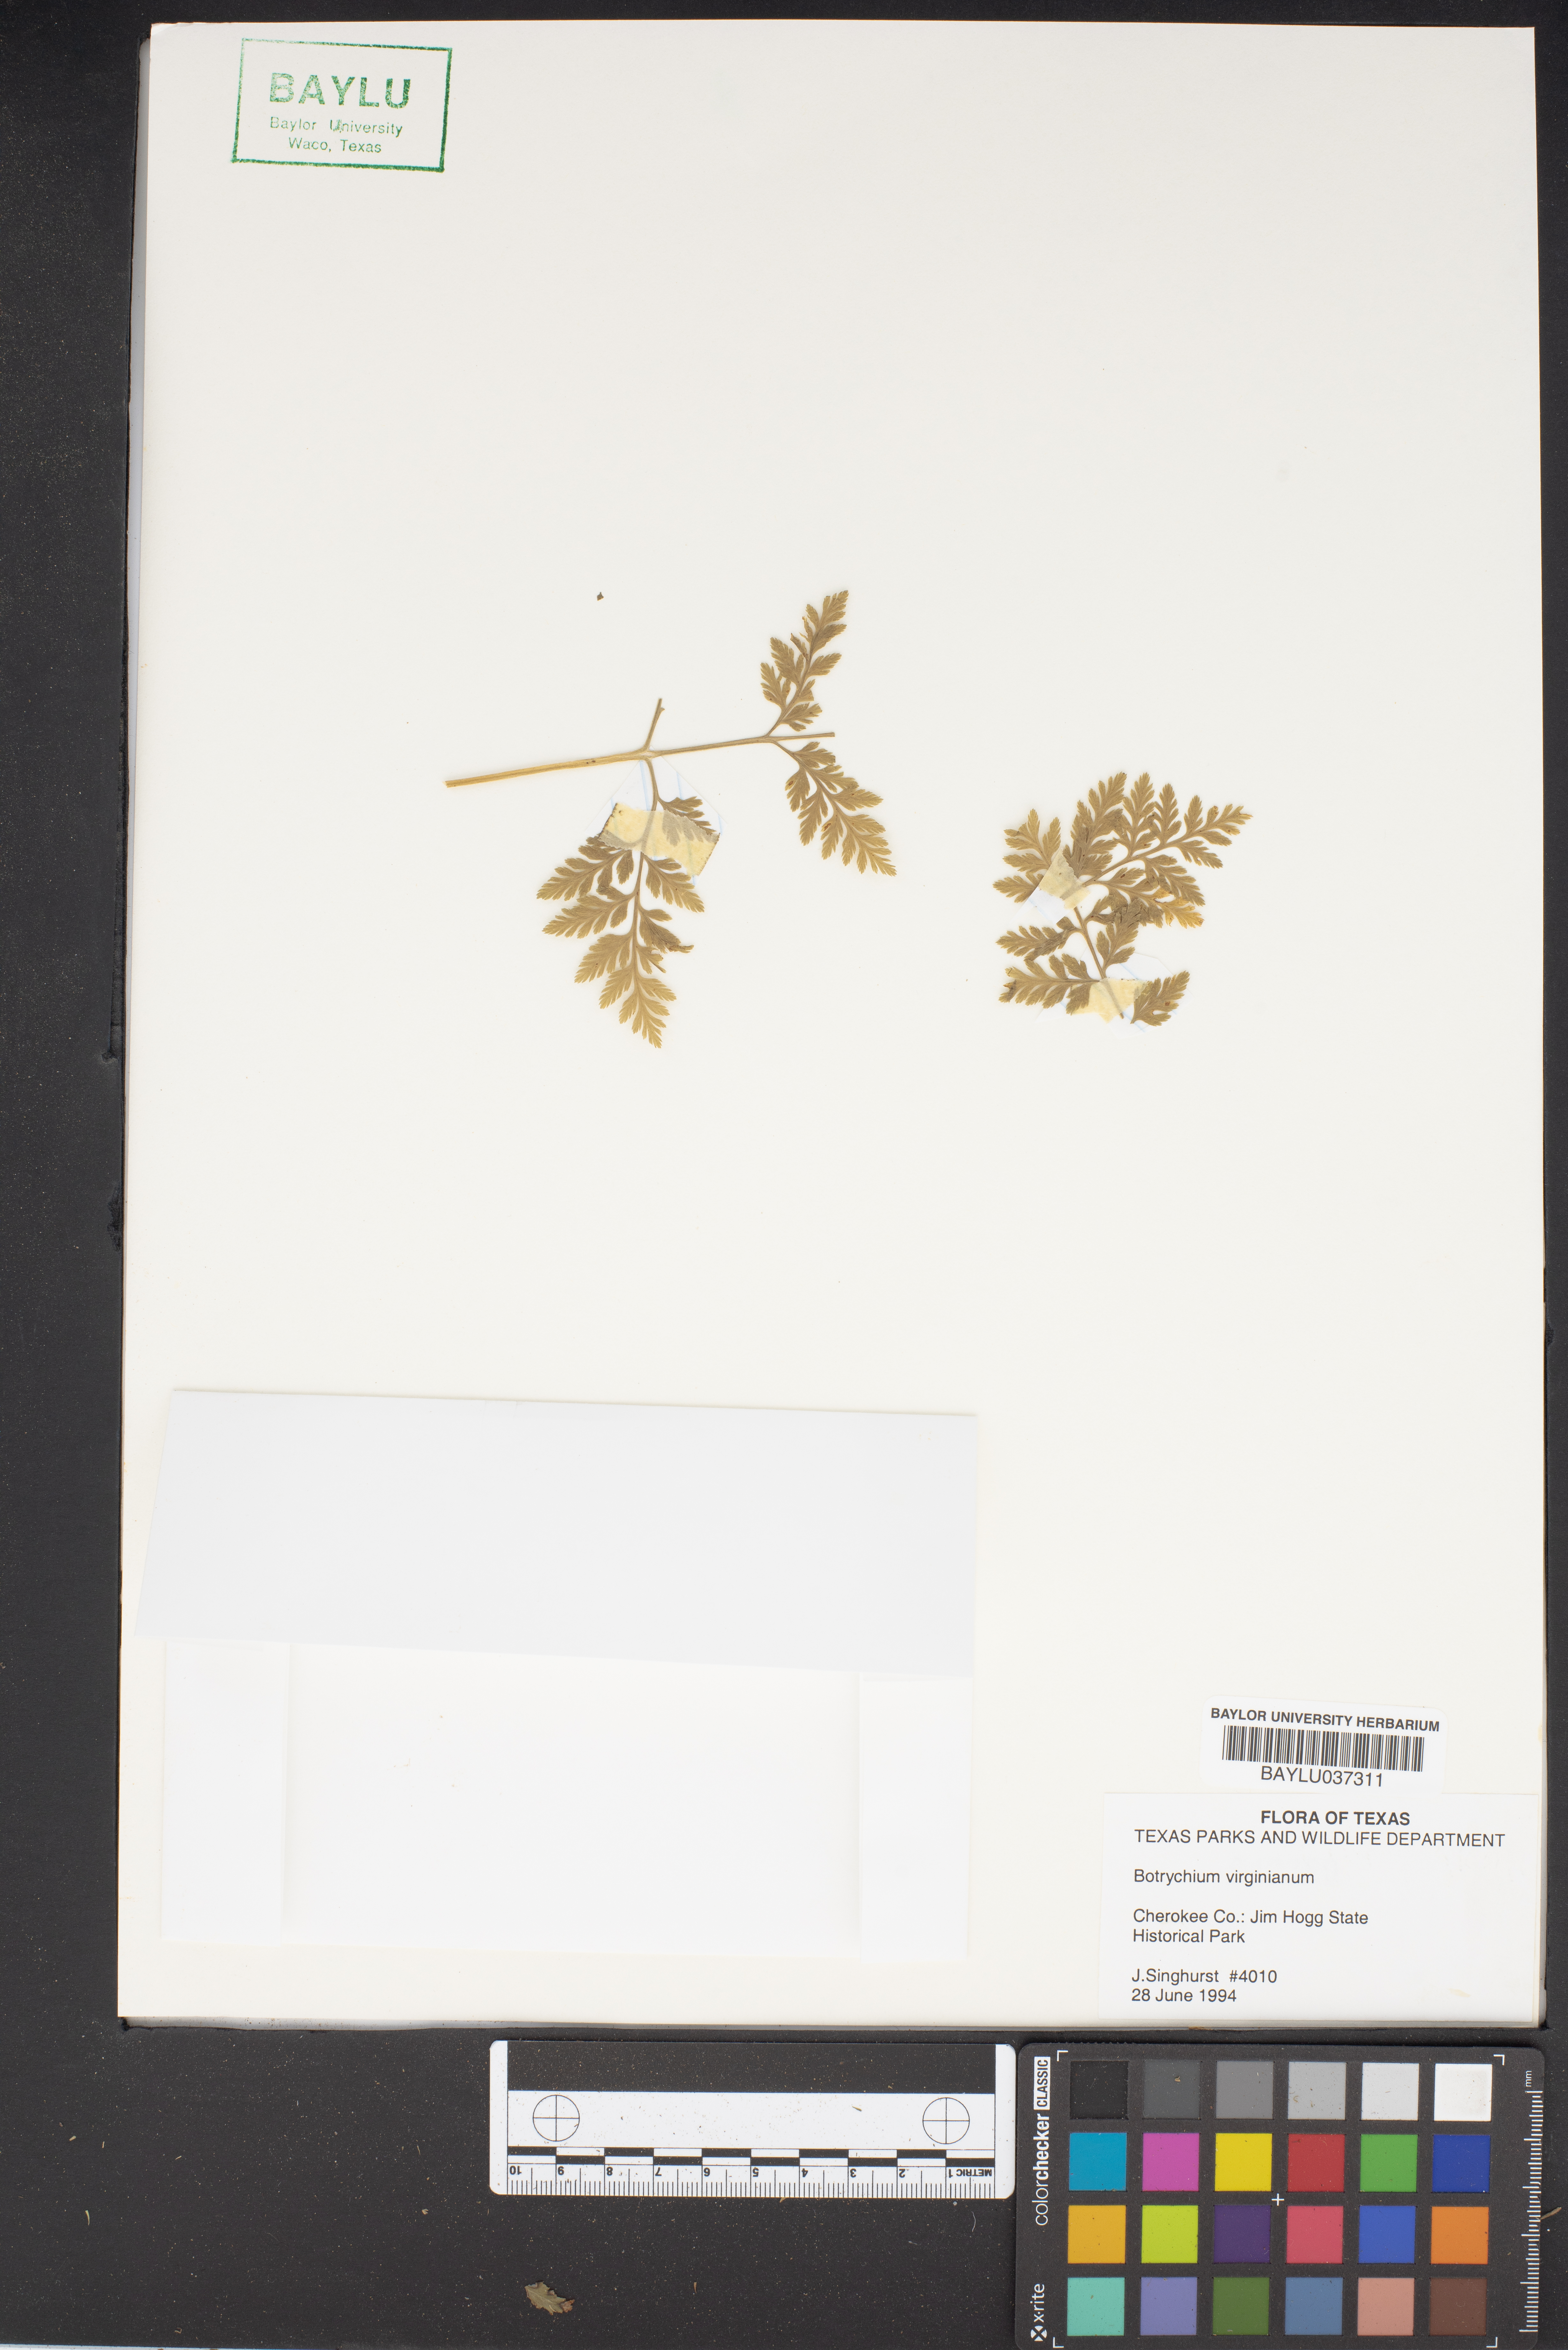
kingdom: Plantae
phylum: Tracheophyta
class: Polypodiopsida
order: Ophioglossales
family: Ophioglossaceae
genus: Botrypus
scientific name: Botrypus virginianus
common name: Common grapefern
